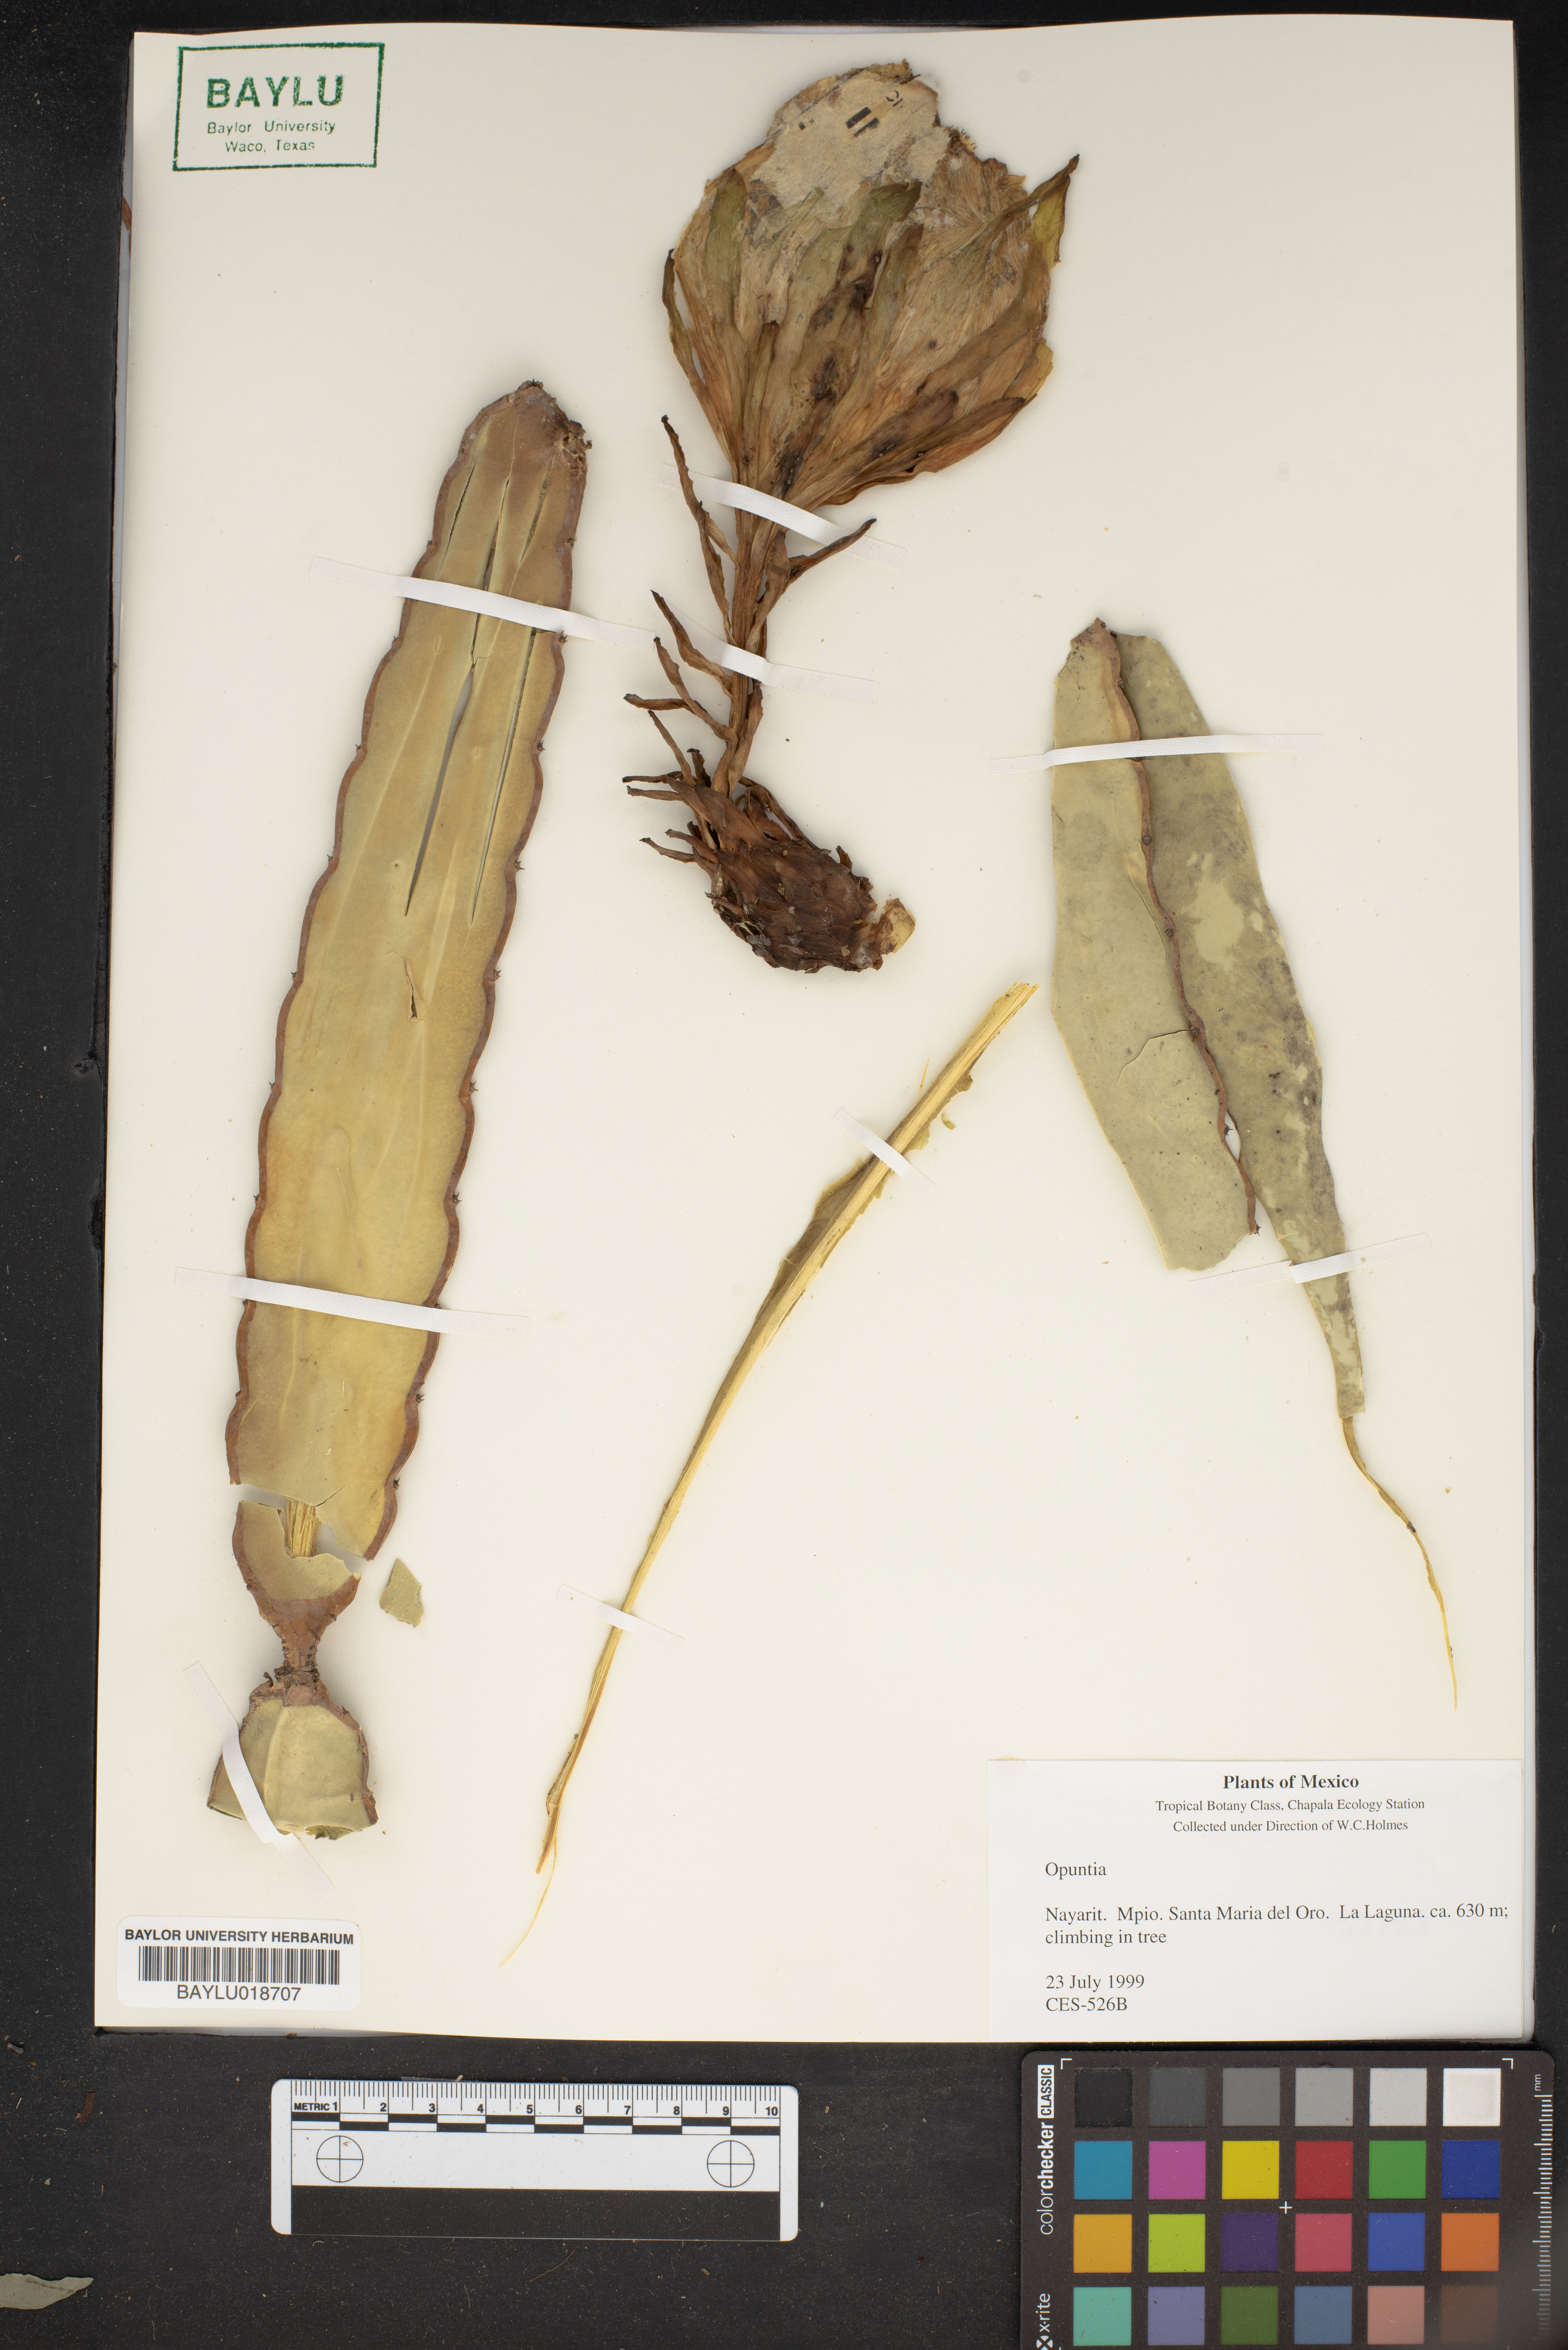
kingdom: Plantae
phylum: Tracheophyta
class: Magnoliopsida
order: Caryophyllales
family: Cactaceae
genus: Opuntia
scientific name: Opuntia
